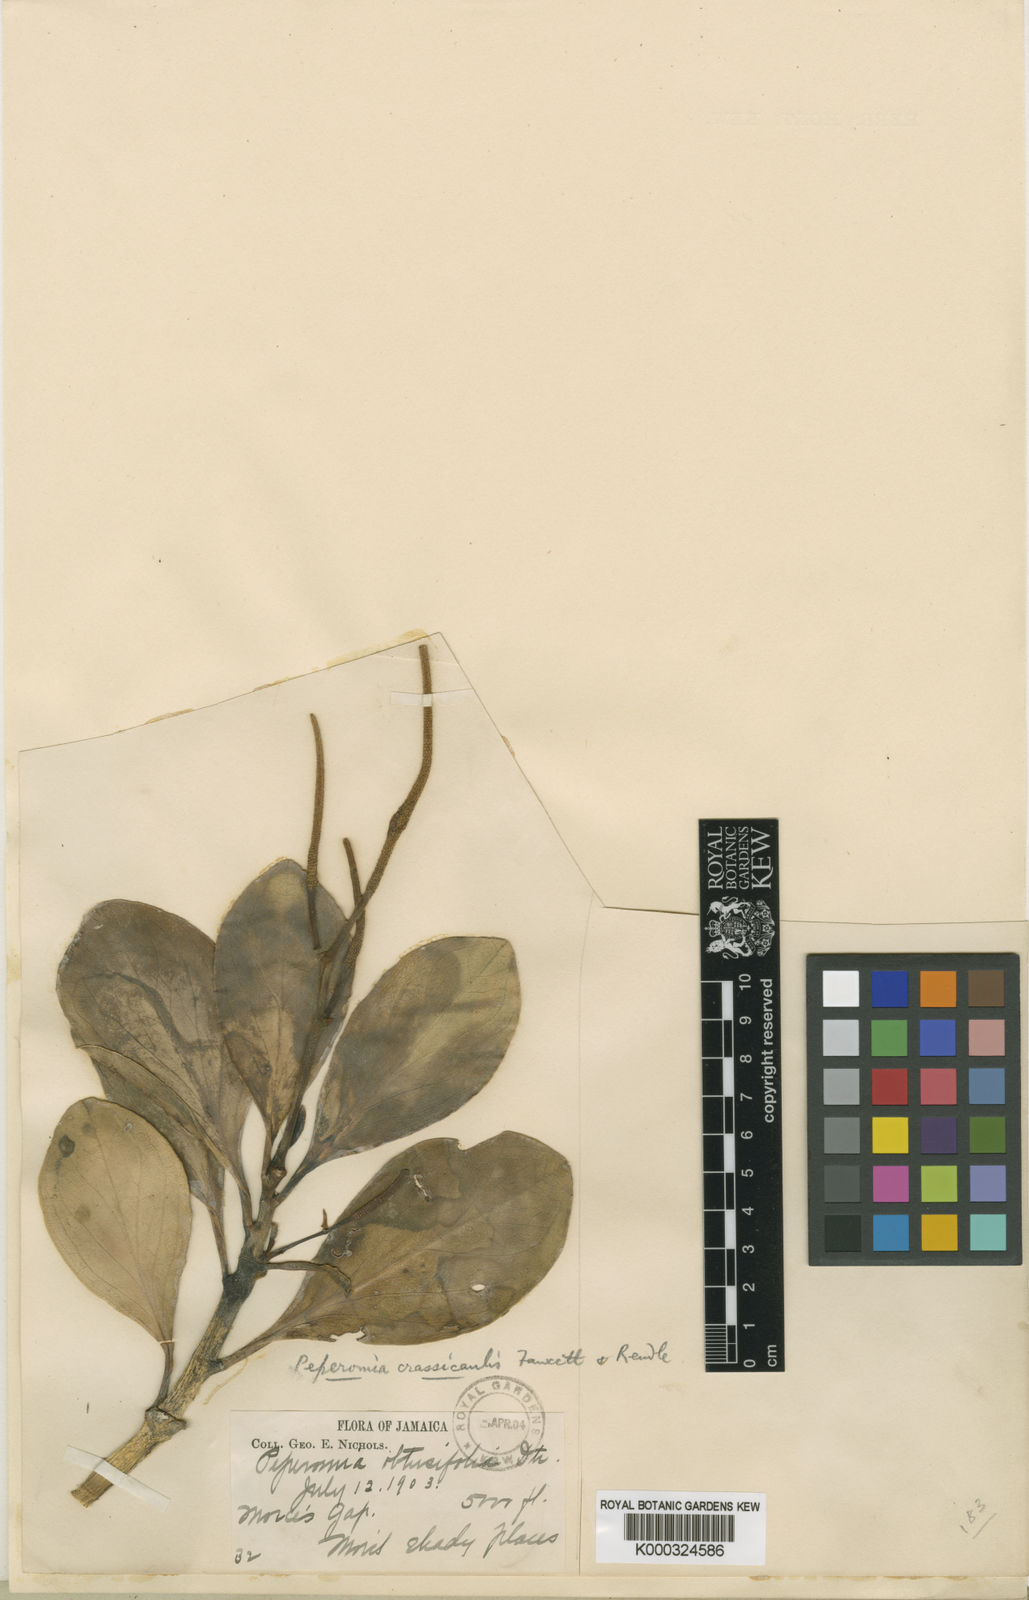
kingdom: Plantae
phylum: Tracheophyta
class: Magnoliopsida
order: Piperales
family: Piperaceae
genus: Peperomia
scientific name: Peperomia crassicaulis
